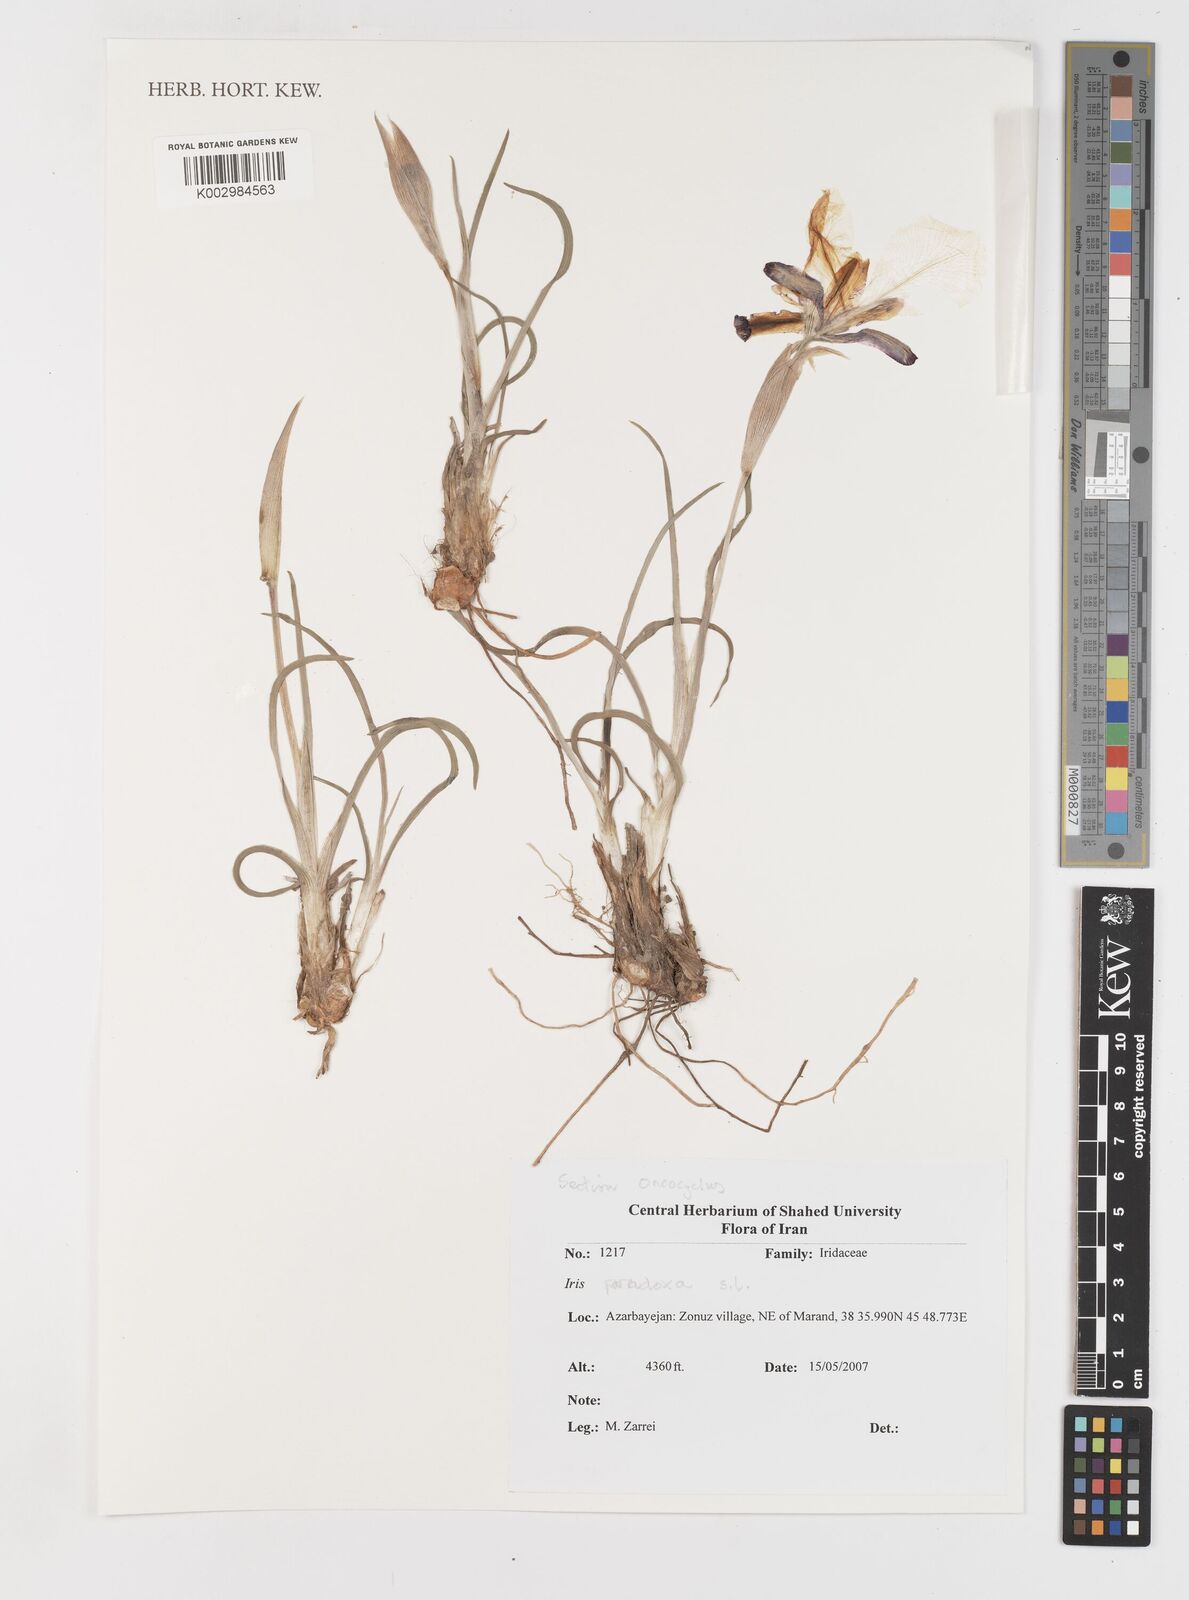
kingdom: Plantae
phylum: Tracheophyta
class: Liliopsida
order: Asparagales
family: Iridaceae
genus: Iris
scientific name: Iris paradoxa
